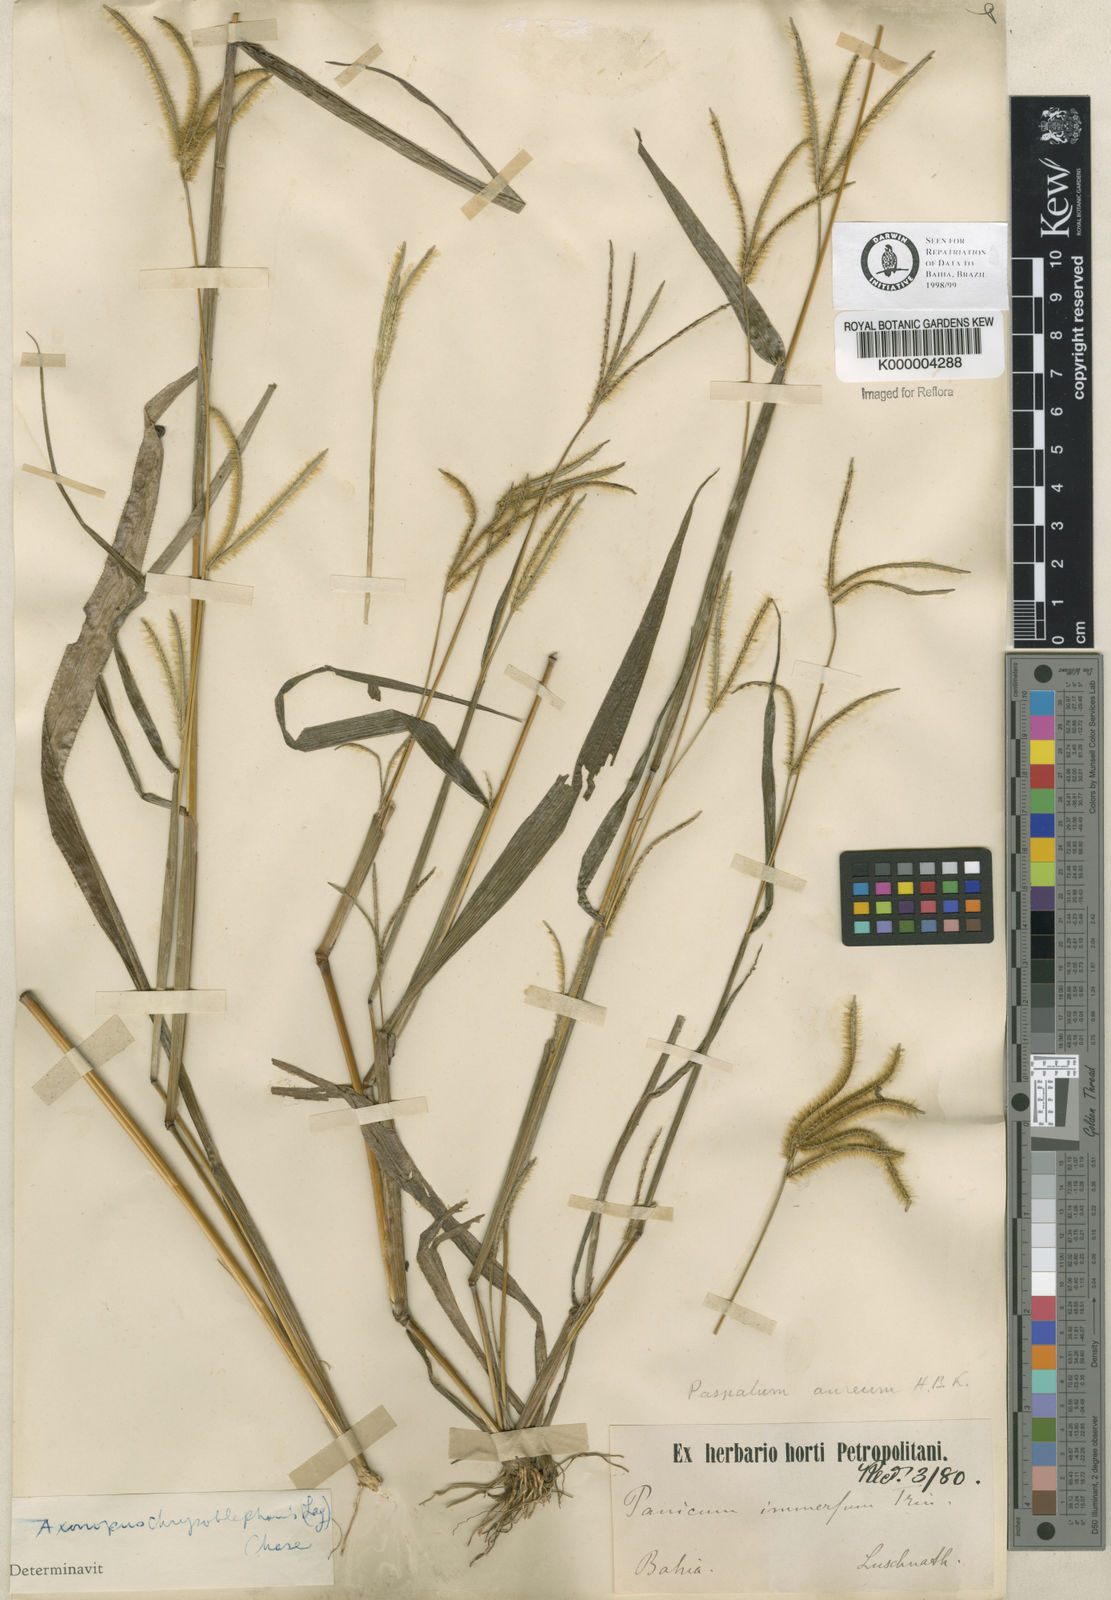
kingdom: Plantae
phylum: Tracheophyta
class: Liliopsida
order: Poales
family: Poaceae
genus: Axonopus
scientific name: Axonopus chrysoblepharis
